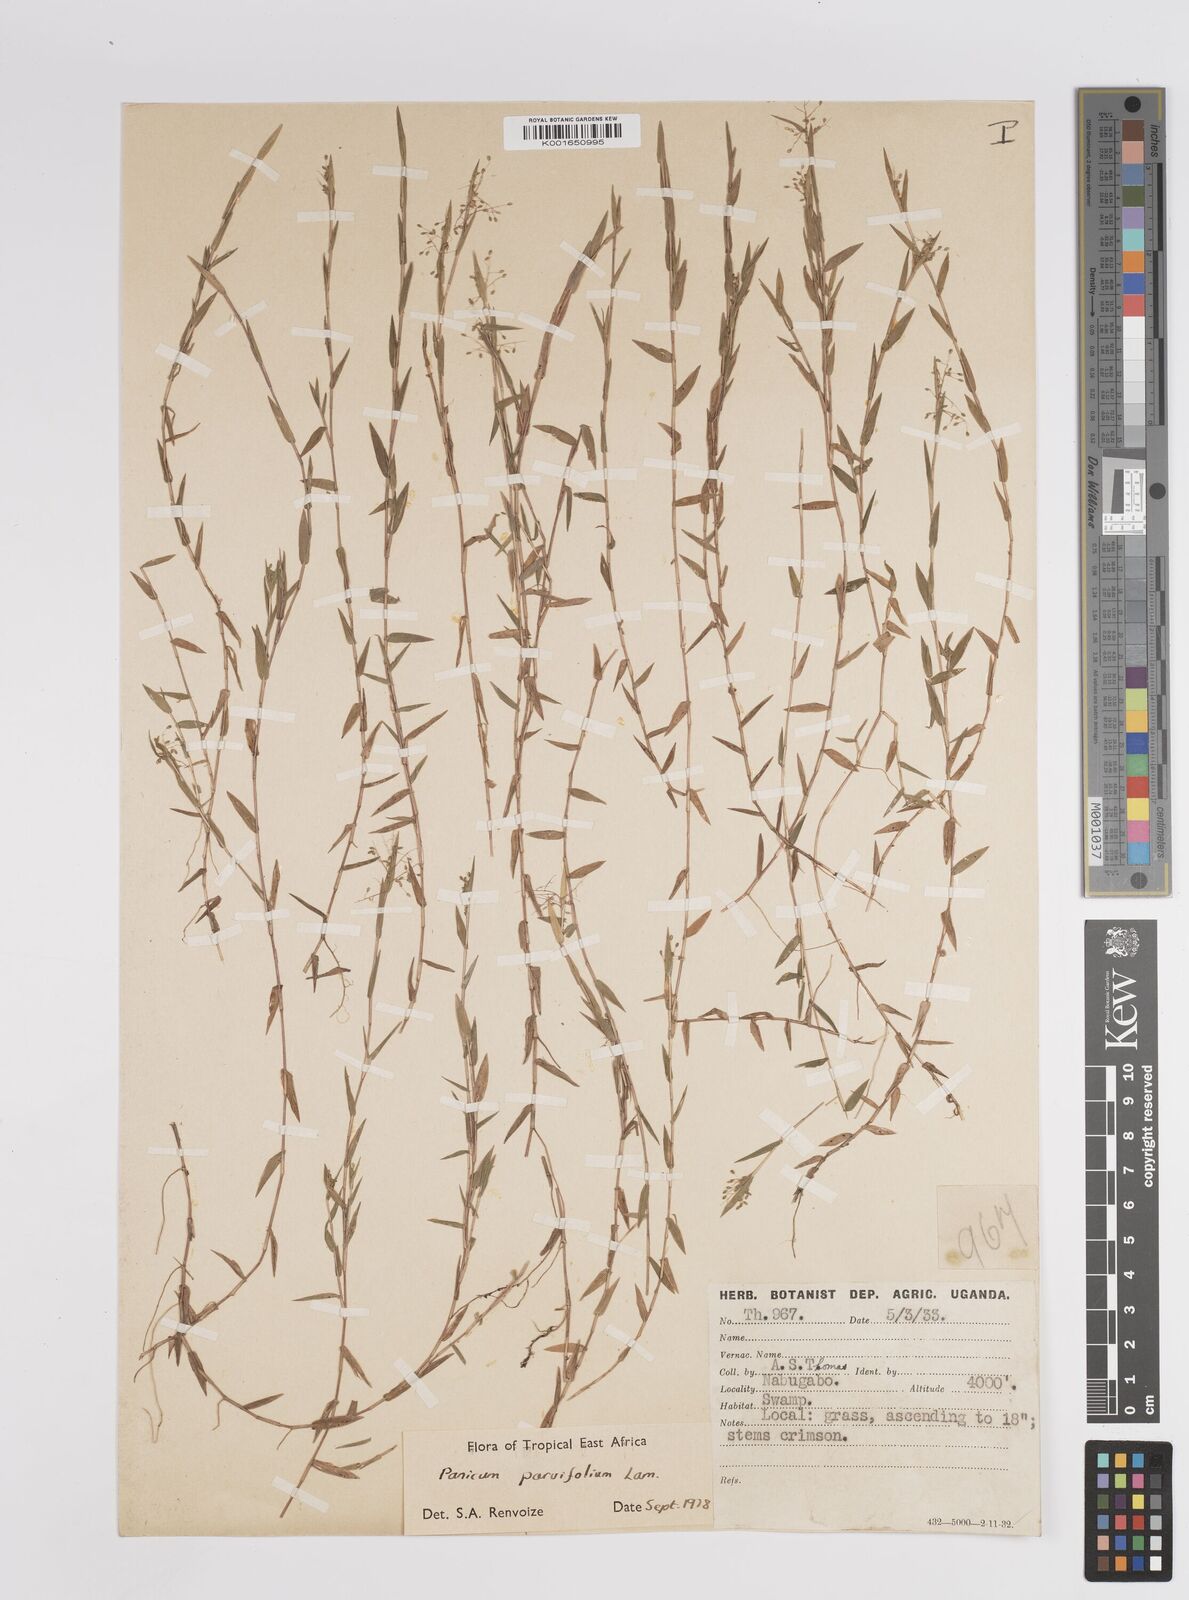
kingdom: Plantae
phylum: Tracheophyta
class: Liliopsida
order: Poales
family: Poaceae
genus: Trichanthecium
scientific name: Trichanthecium parvifolium
